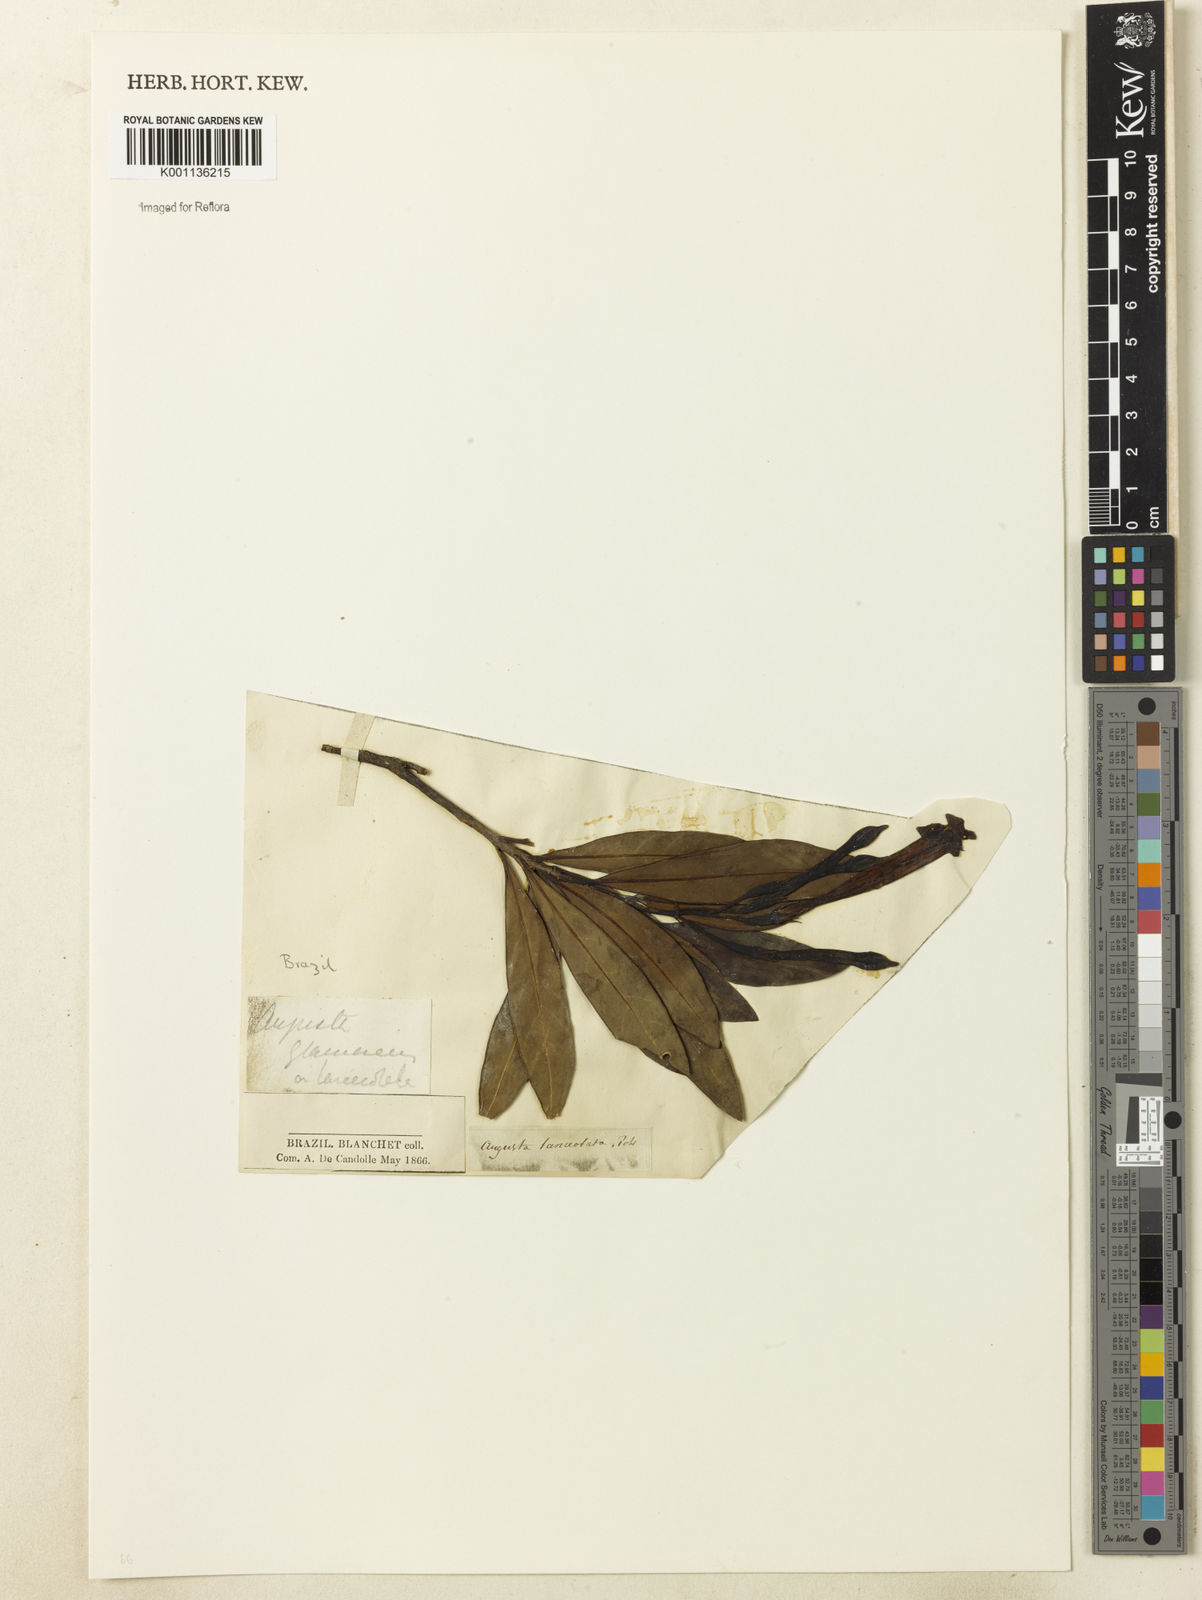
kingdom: Plantae
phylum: Tracheophyta
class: Magnoliopsida
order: Gentianales
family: Rubiaceae
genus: Augusta
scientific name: Augusta longifolia
